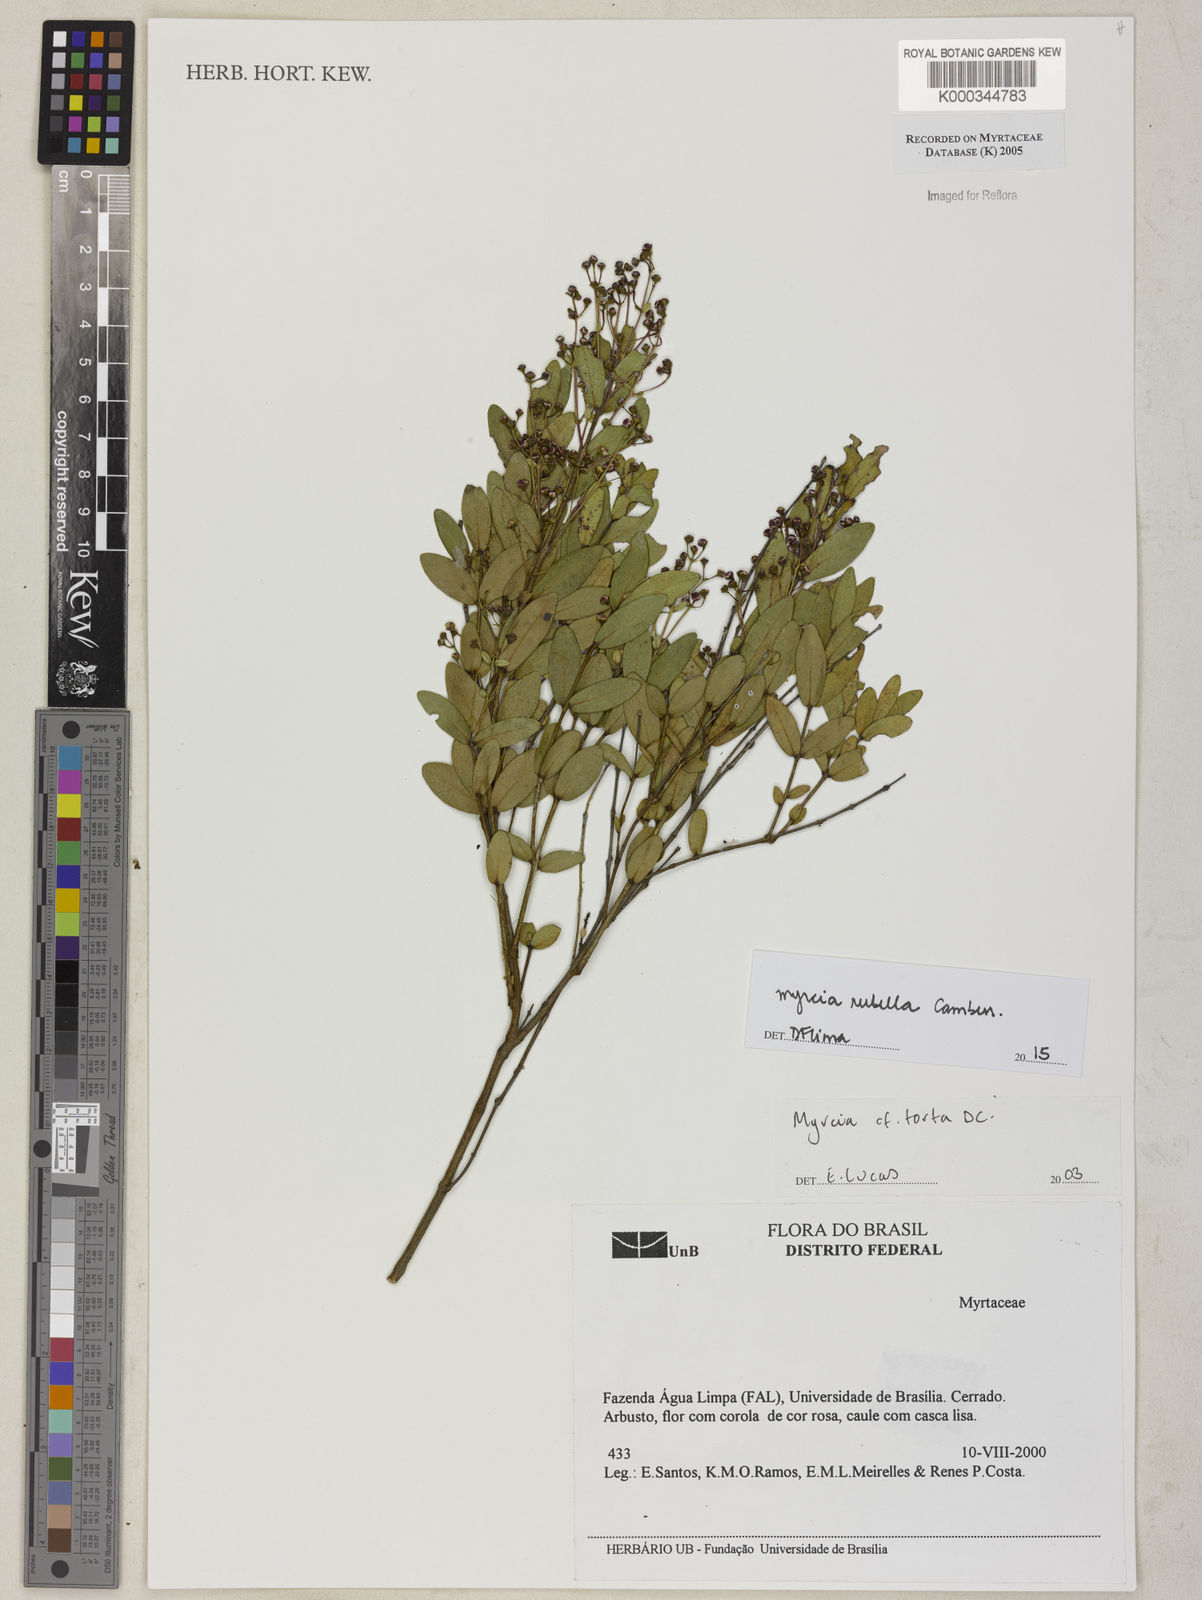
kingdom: Plantae
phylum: Tracheophyta
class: Magnoliopsida
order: Myrtales
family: Myrtaceae
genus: Myrcia
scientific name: Myrcia guianensis
